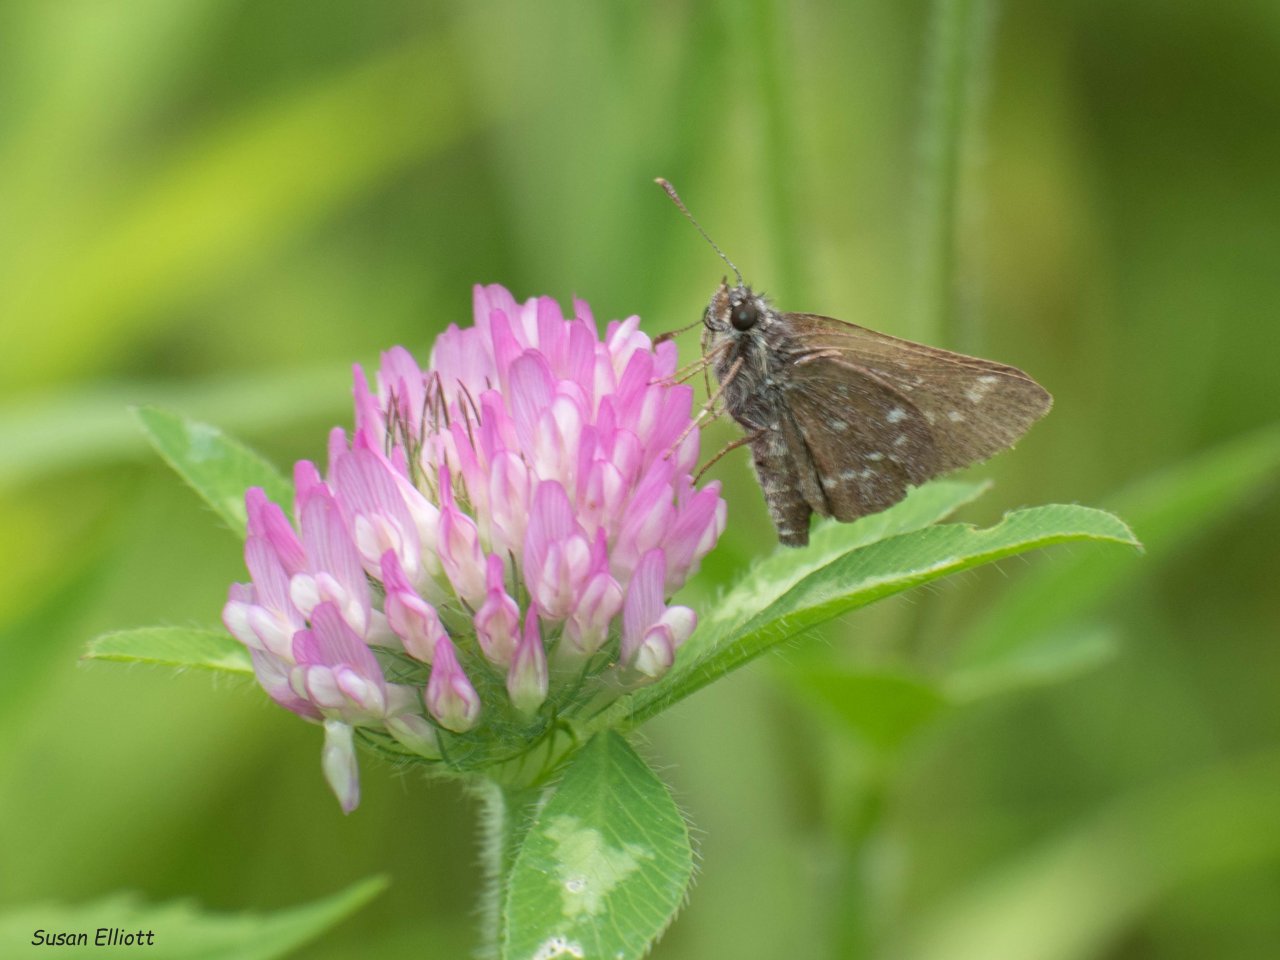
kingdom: Animalia
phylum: Arthropoda
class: Insecta
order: Lepidoptera
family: Hesperiidae
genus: Mastor
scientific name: Mastor hegon
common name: Pepper and Salt Skipper
